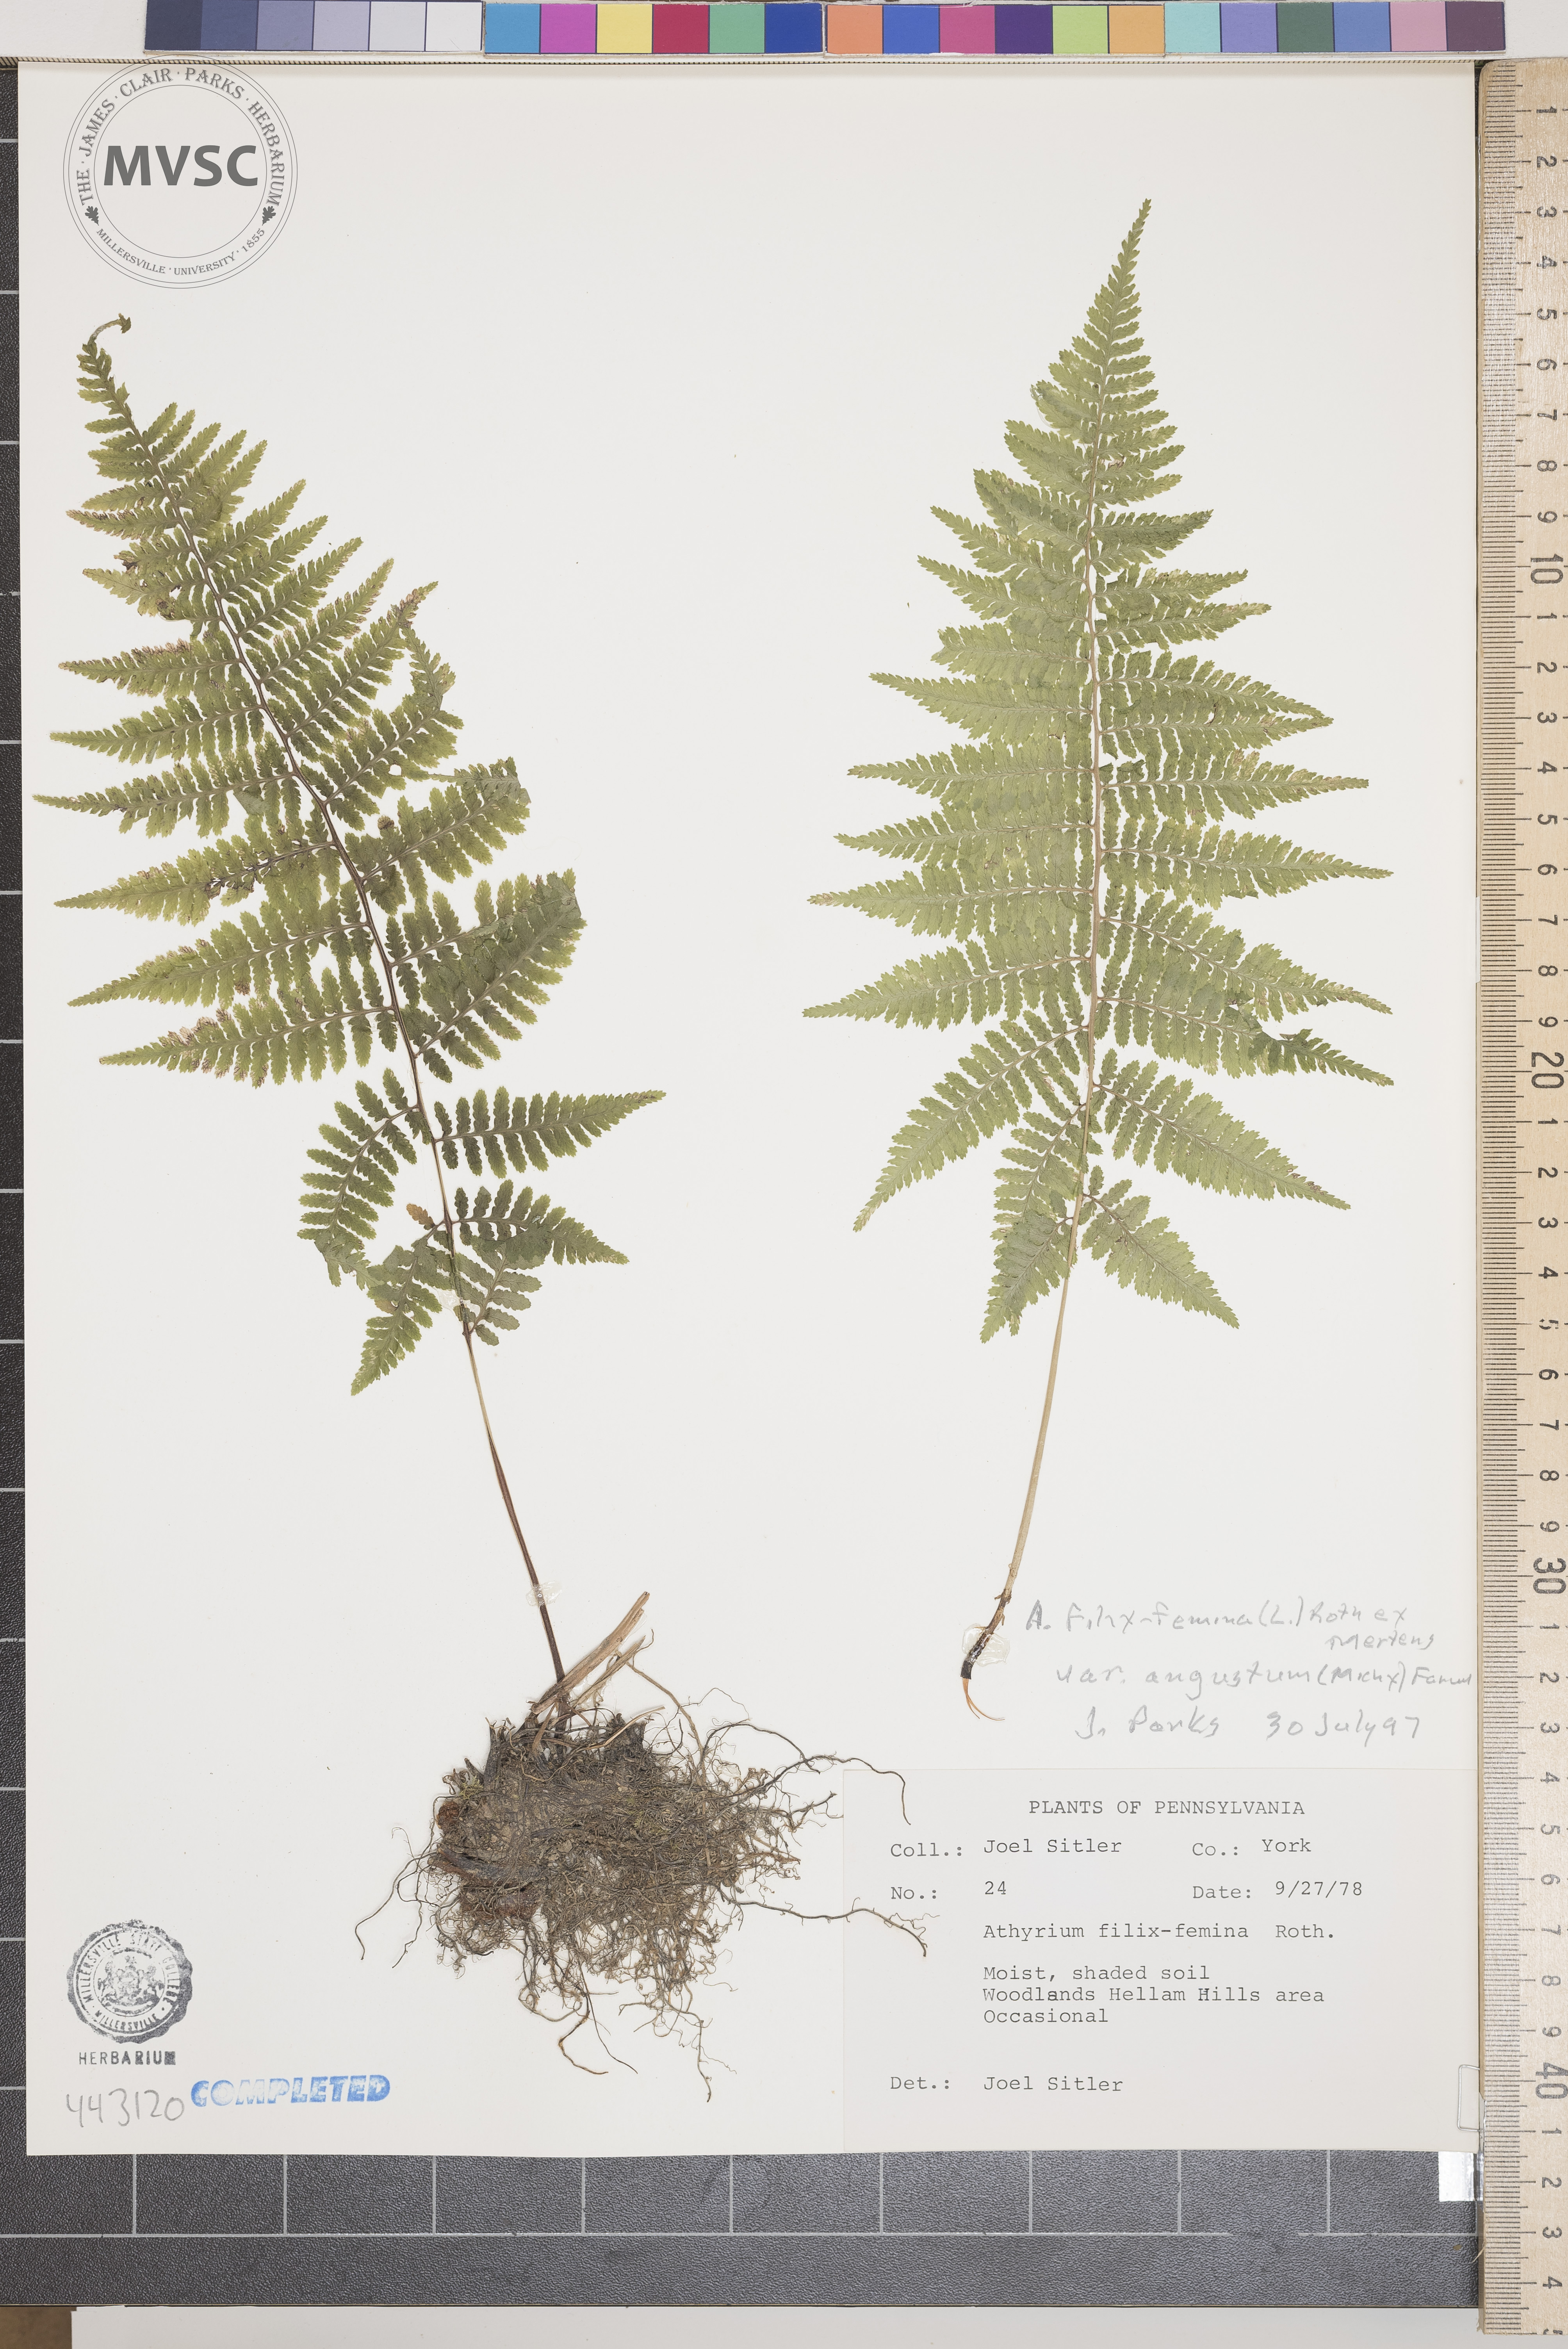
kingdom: Plantae
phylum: Tracheophyta
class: Polypodiopsida
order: Polypodiales
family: Athyriaceae
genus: Athyrium
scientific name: Athyrium filix-femina
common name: Lady fern
